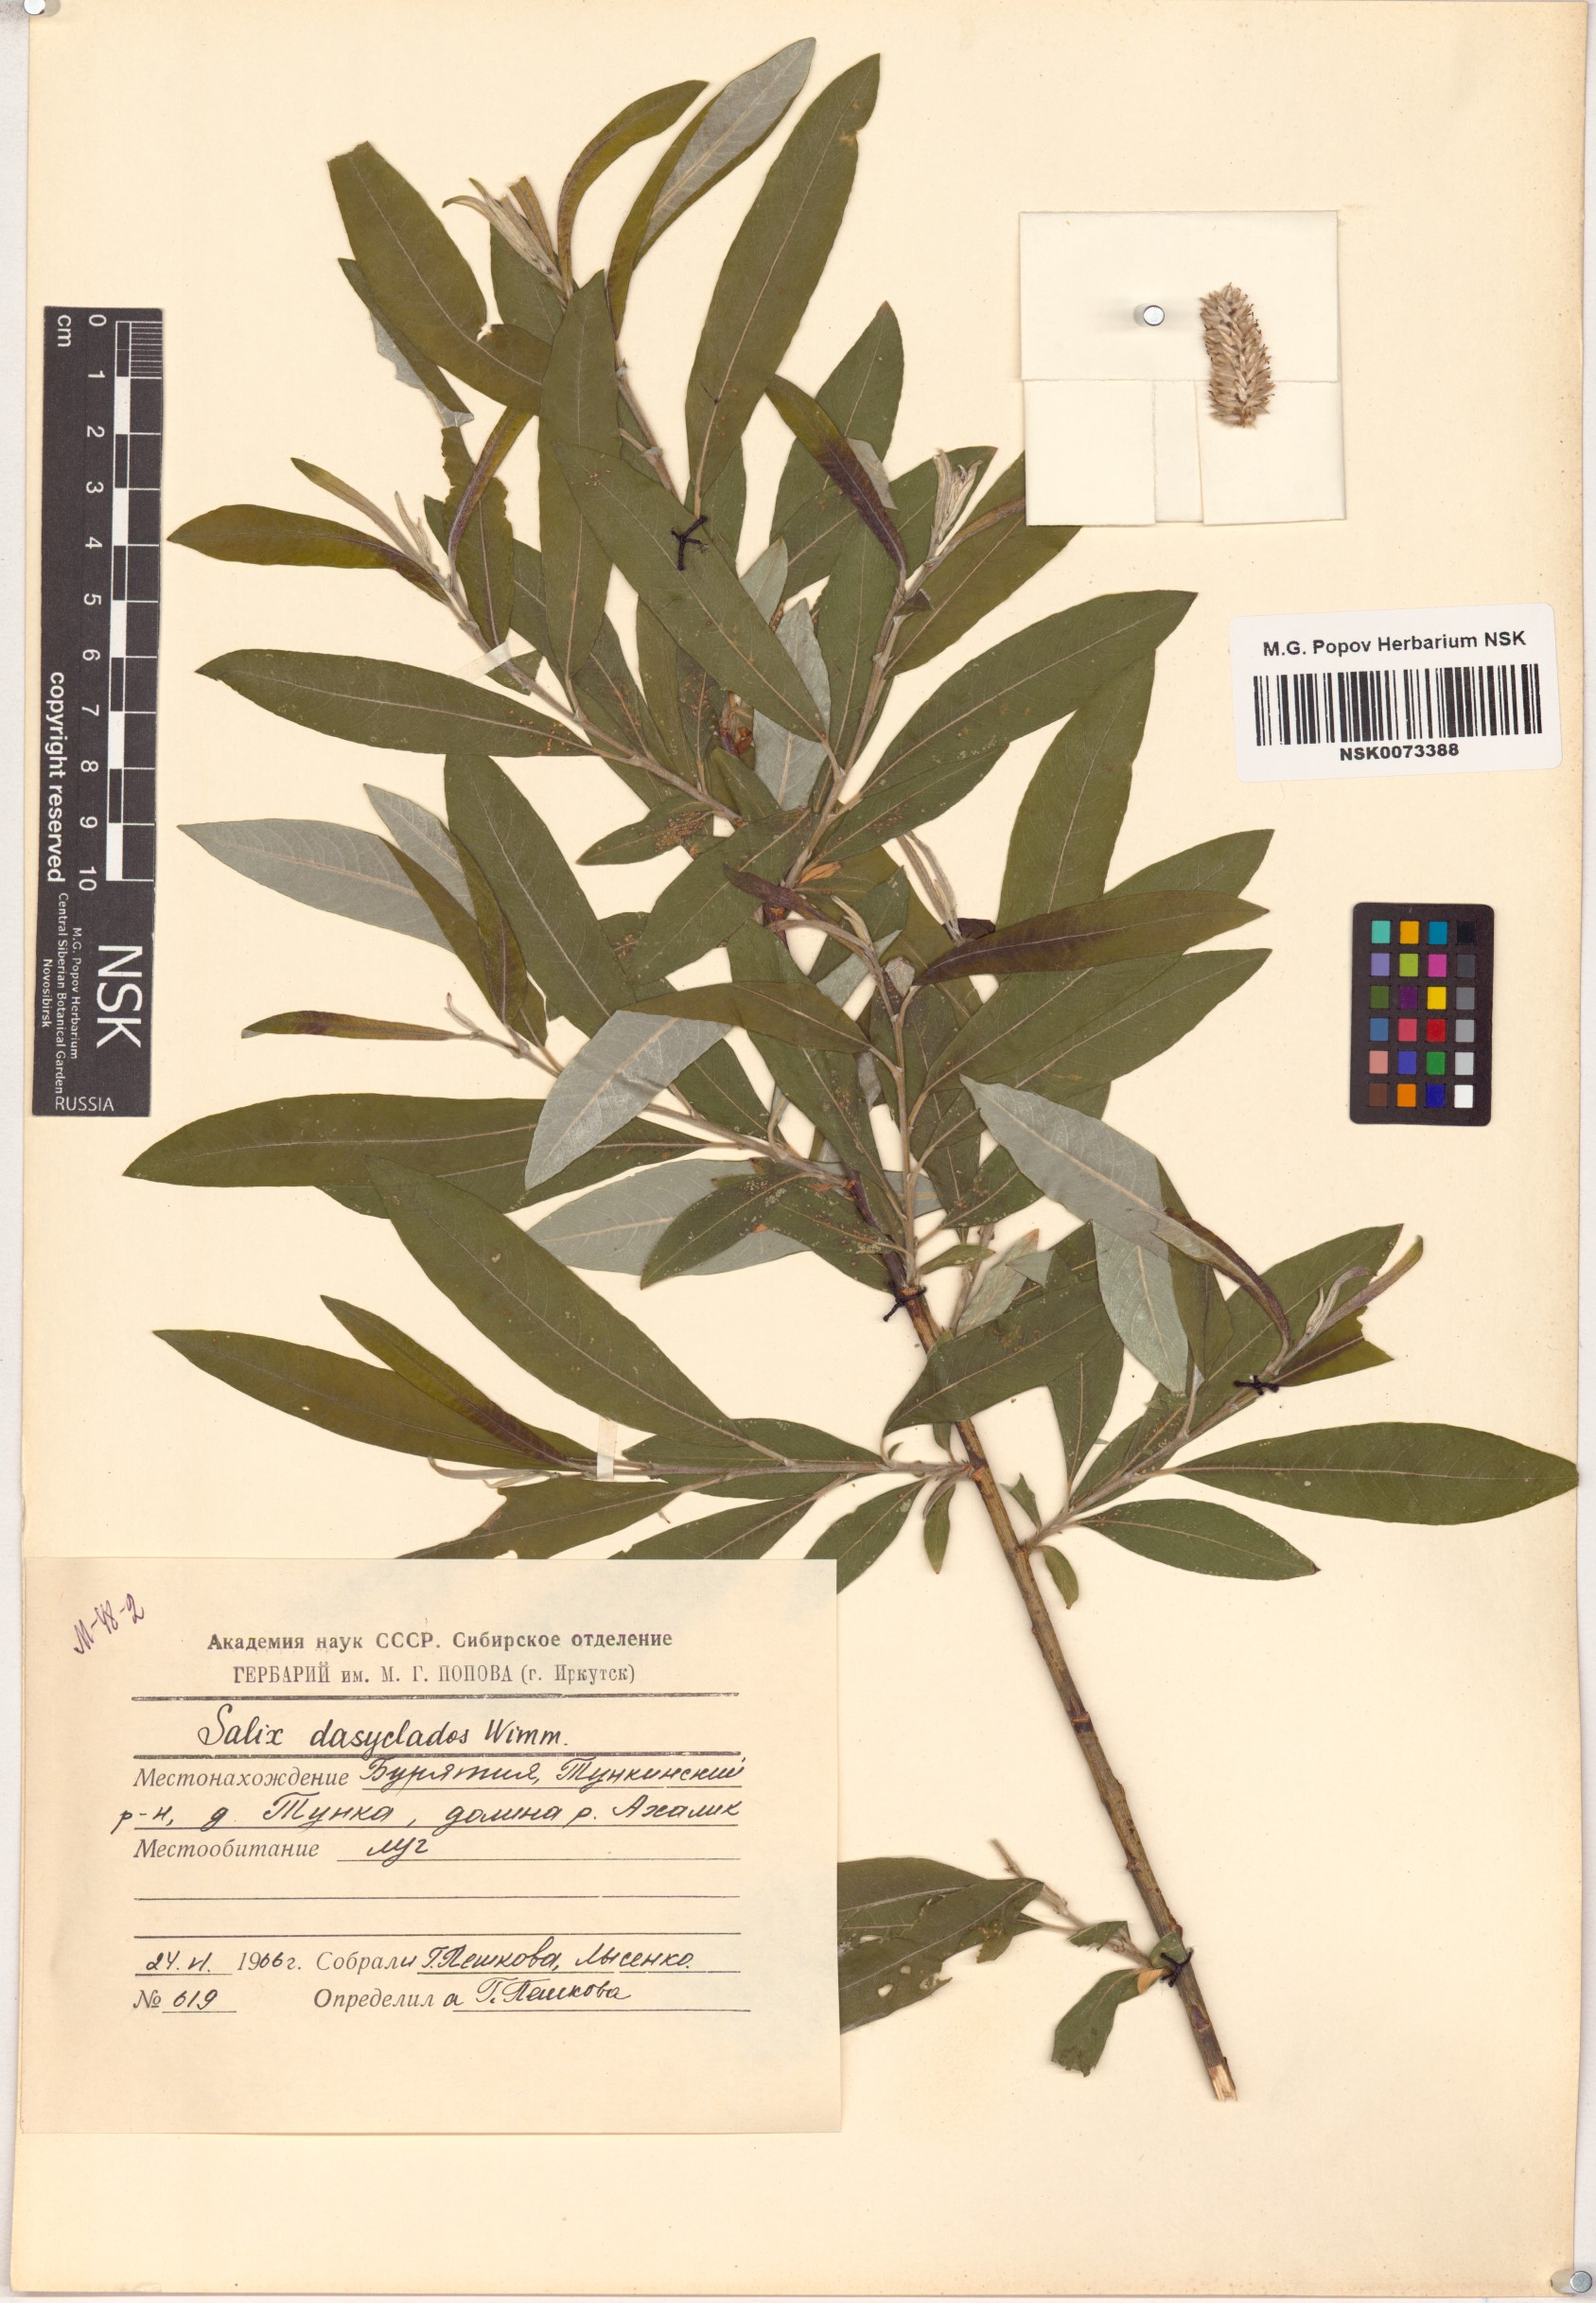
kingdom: Plantae
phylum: Tracheophyta
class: Magnoliopsida
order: Malpighiales
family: Salicaceae
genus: Salix
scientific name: Salix gmelinii
